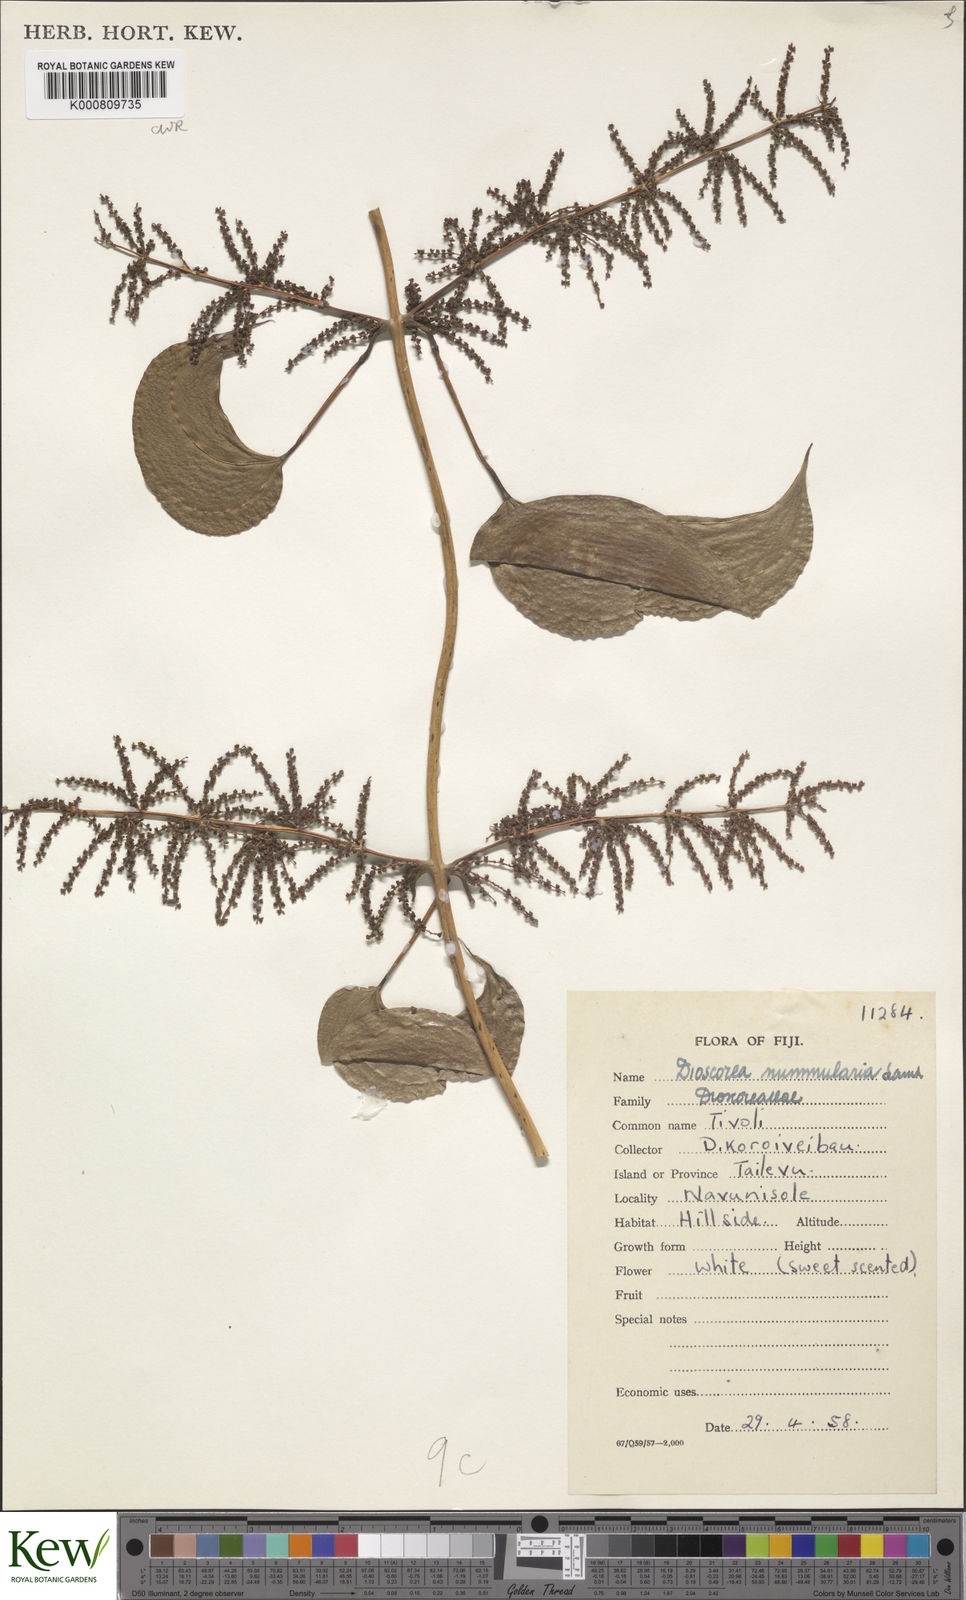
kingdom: Plantae
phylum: Tracheophyta
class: Liliopsida
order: Dioscoreales
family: Dioscoreaceae
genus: Dioscorea
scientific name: Dioscorea nummularia
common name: Pacific yam
